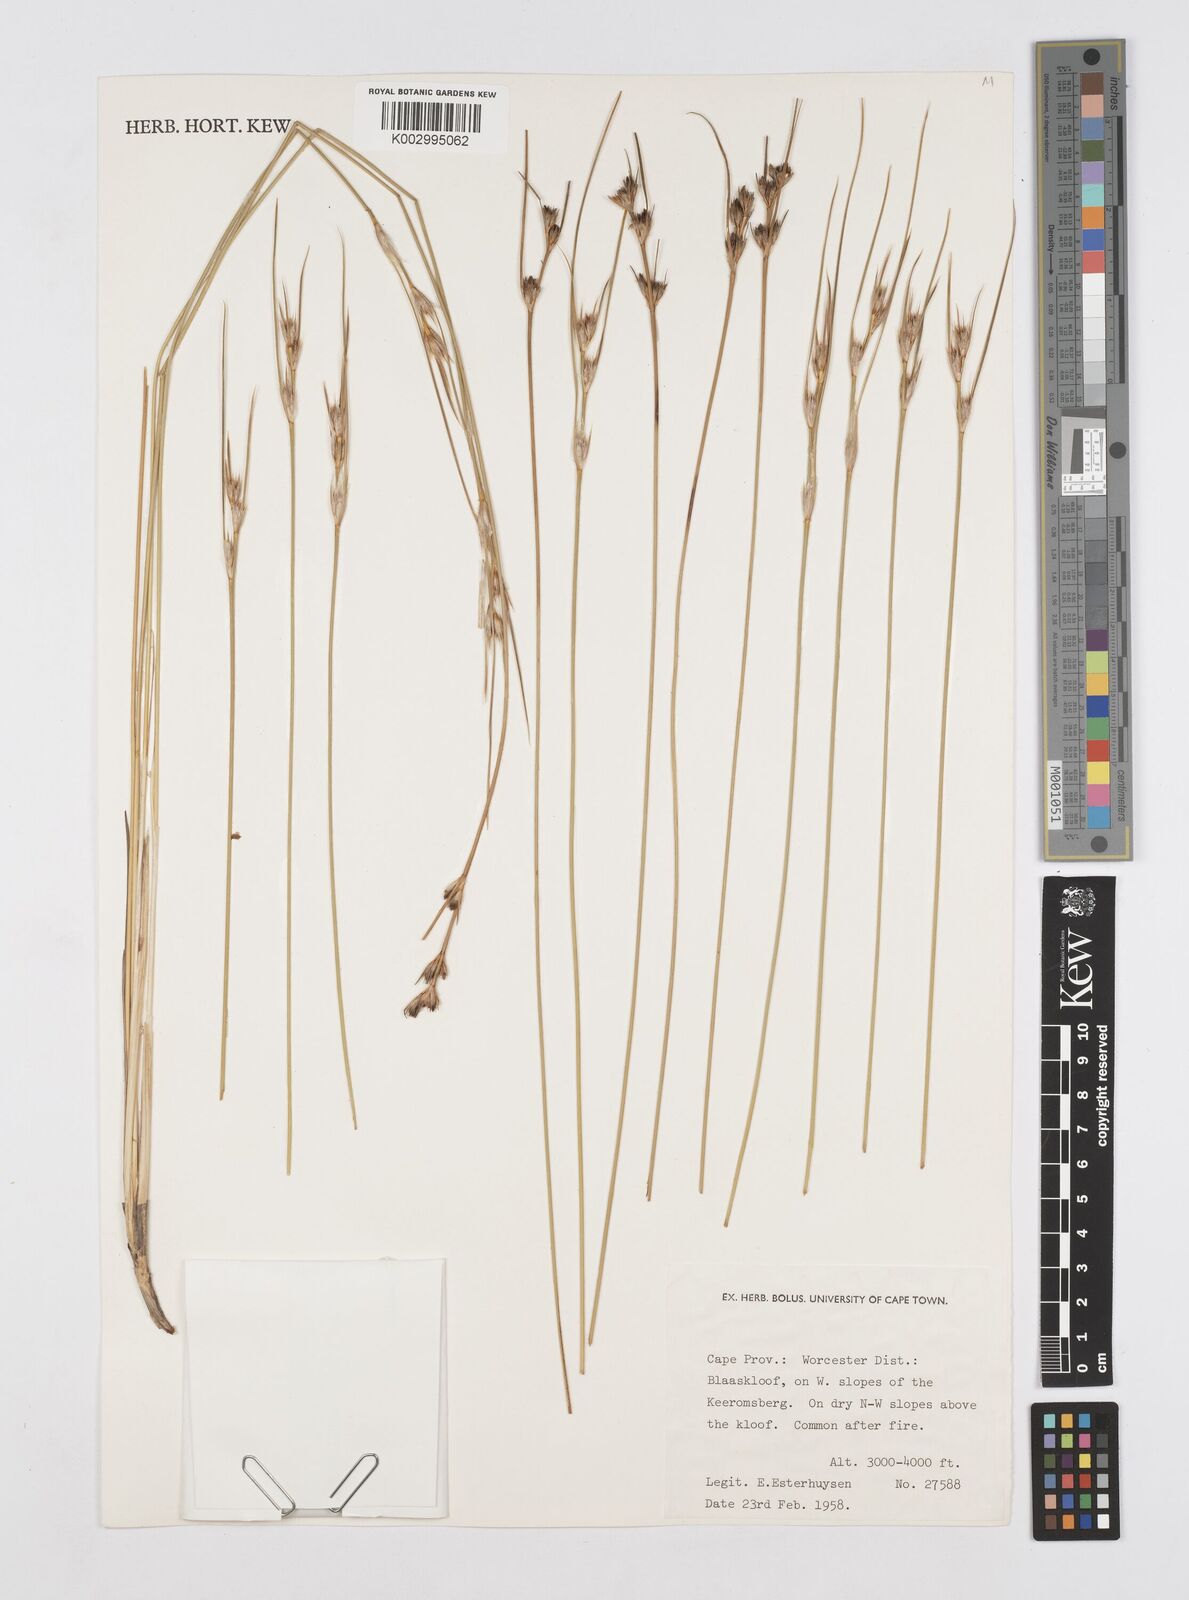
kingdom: Plantae
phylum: Tracheophyta
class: Liliopsida
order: Poales
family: Restionaceae
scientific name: Restionaceae
